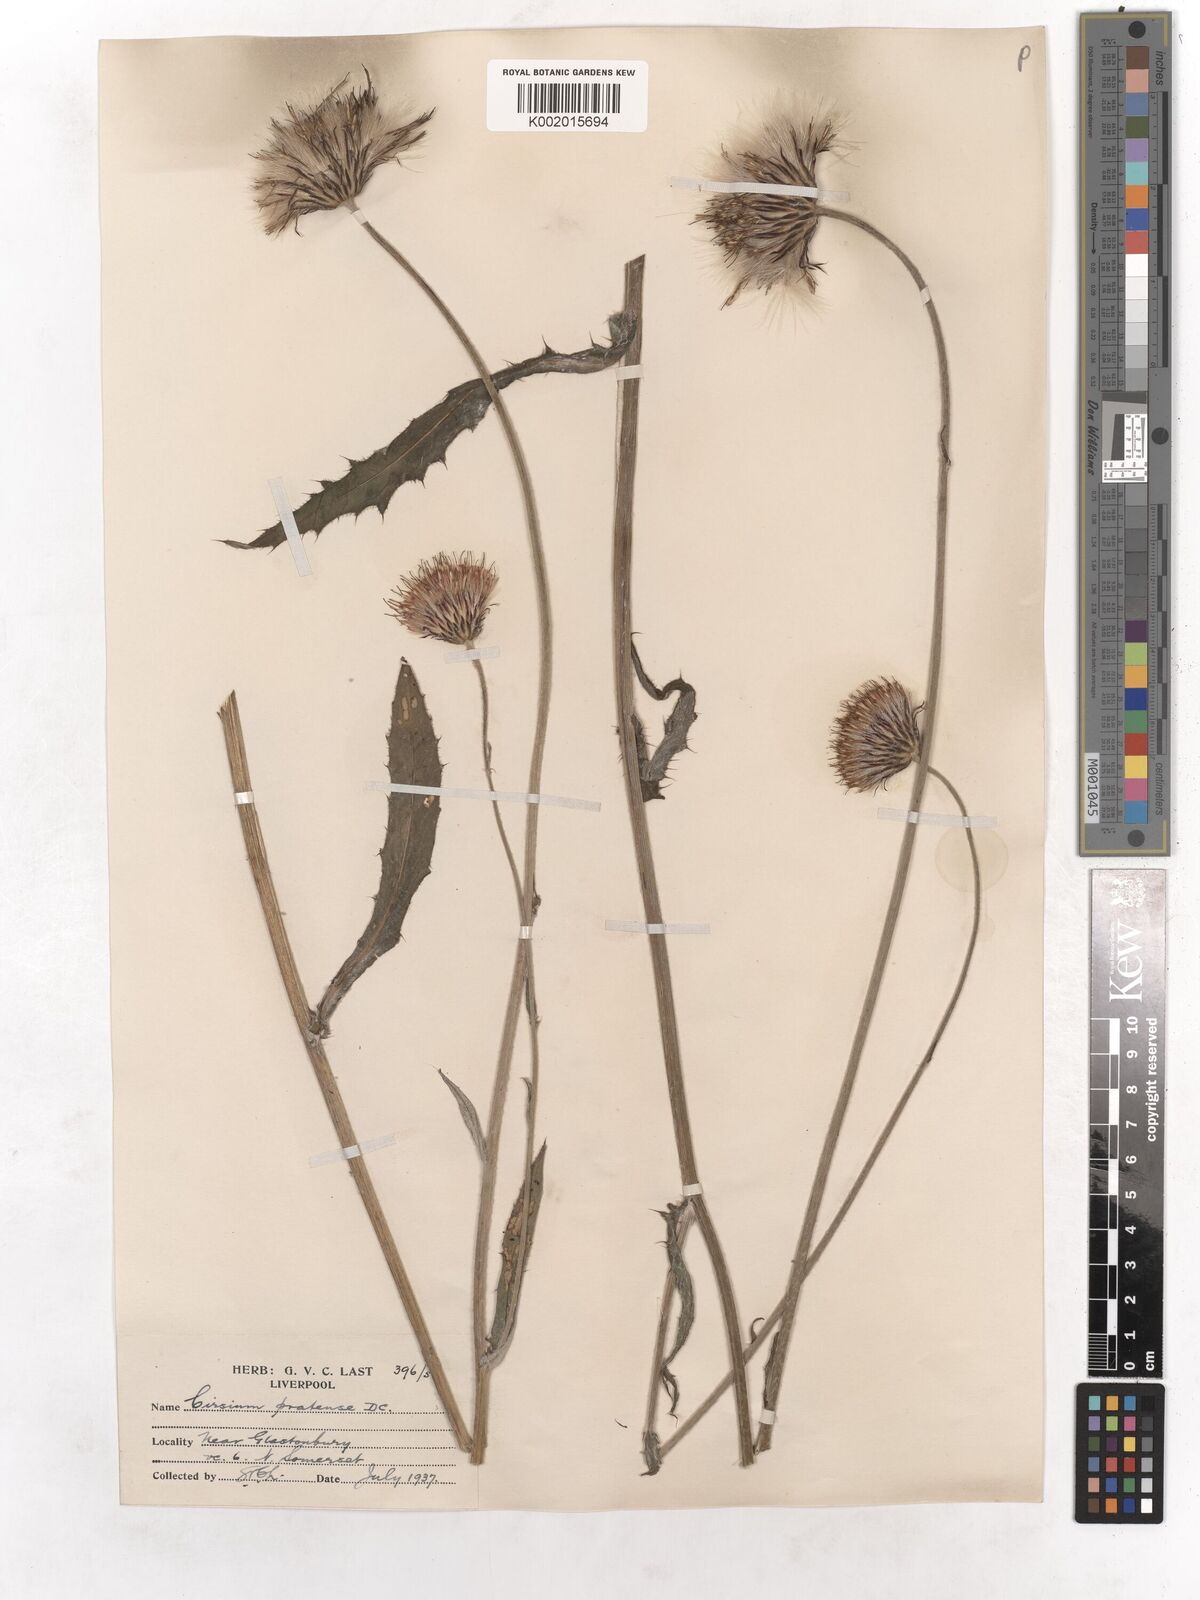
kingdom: Plantae
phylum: Tracheophyta
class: Magnoliopsida
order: Asterales
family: Asteraceae
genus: Cirsium
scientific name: Cirsium dissectum
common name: Meadow thistle
